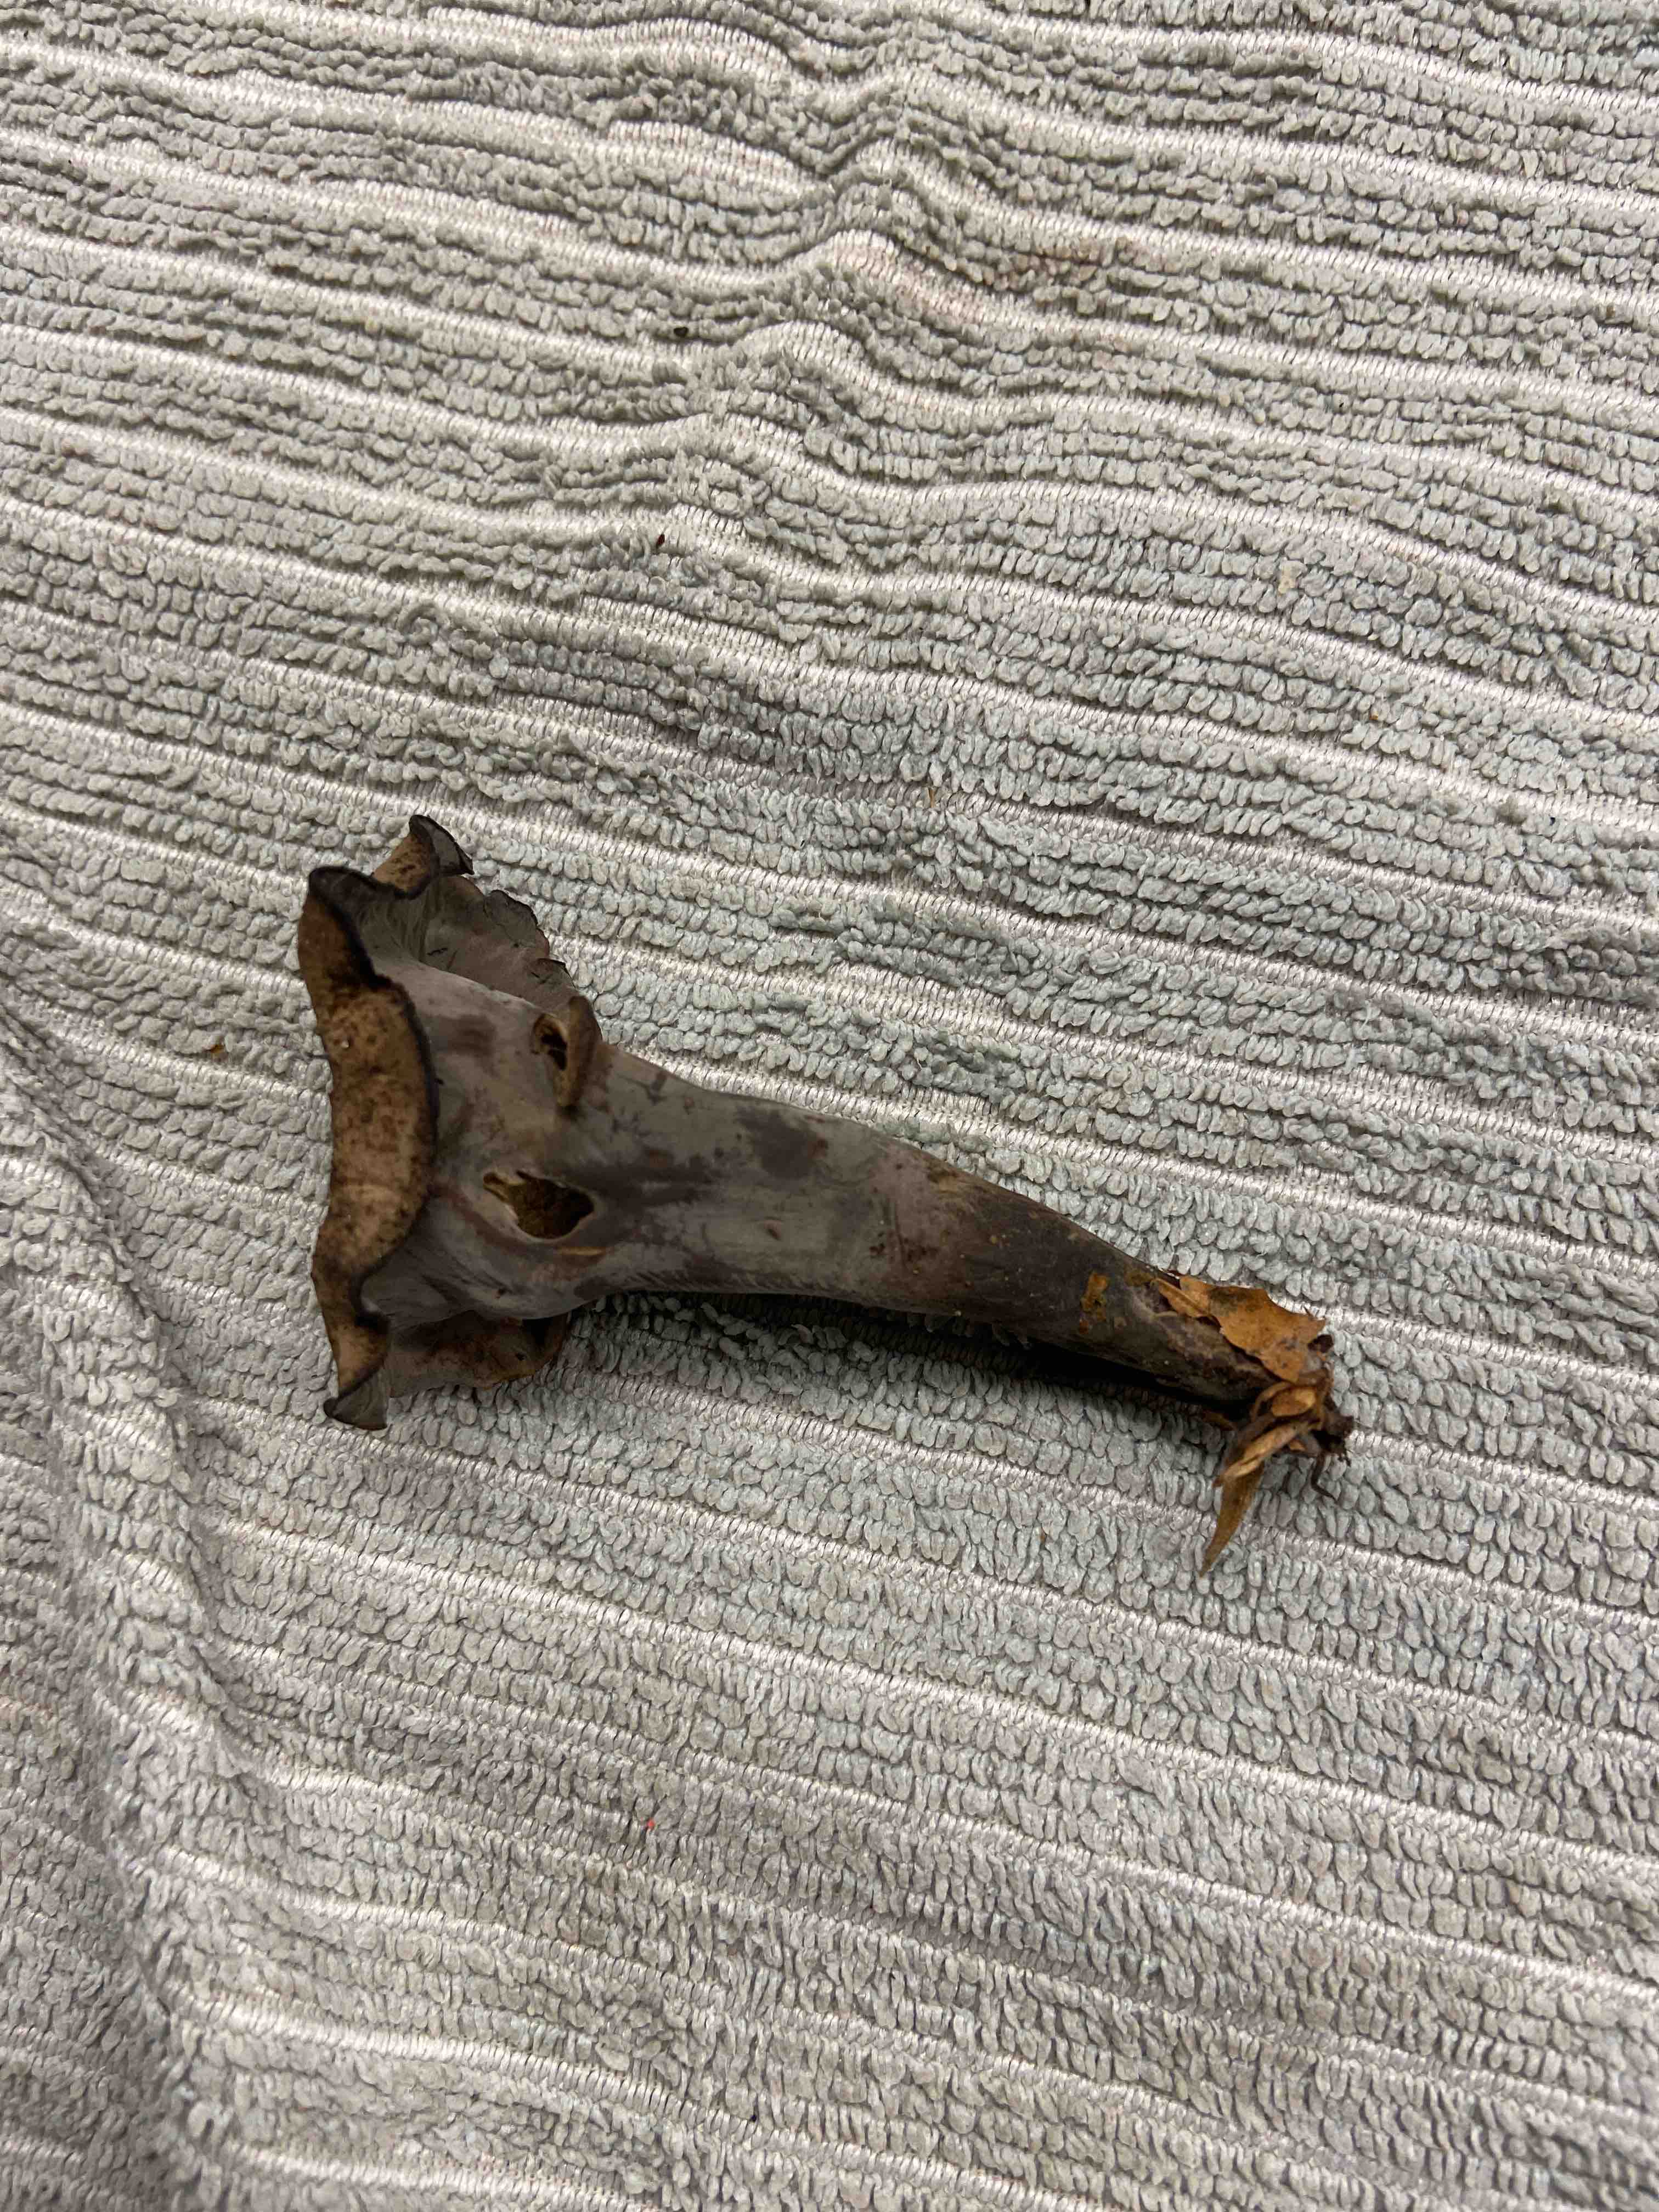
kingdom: Fungi
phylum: Basidiomycota
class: Agaricomycetes
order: Cantharellales
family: Hydnaceae
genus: Craterellus
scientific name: Craterellus cornucopioides
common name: trompetsvamp
